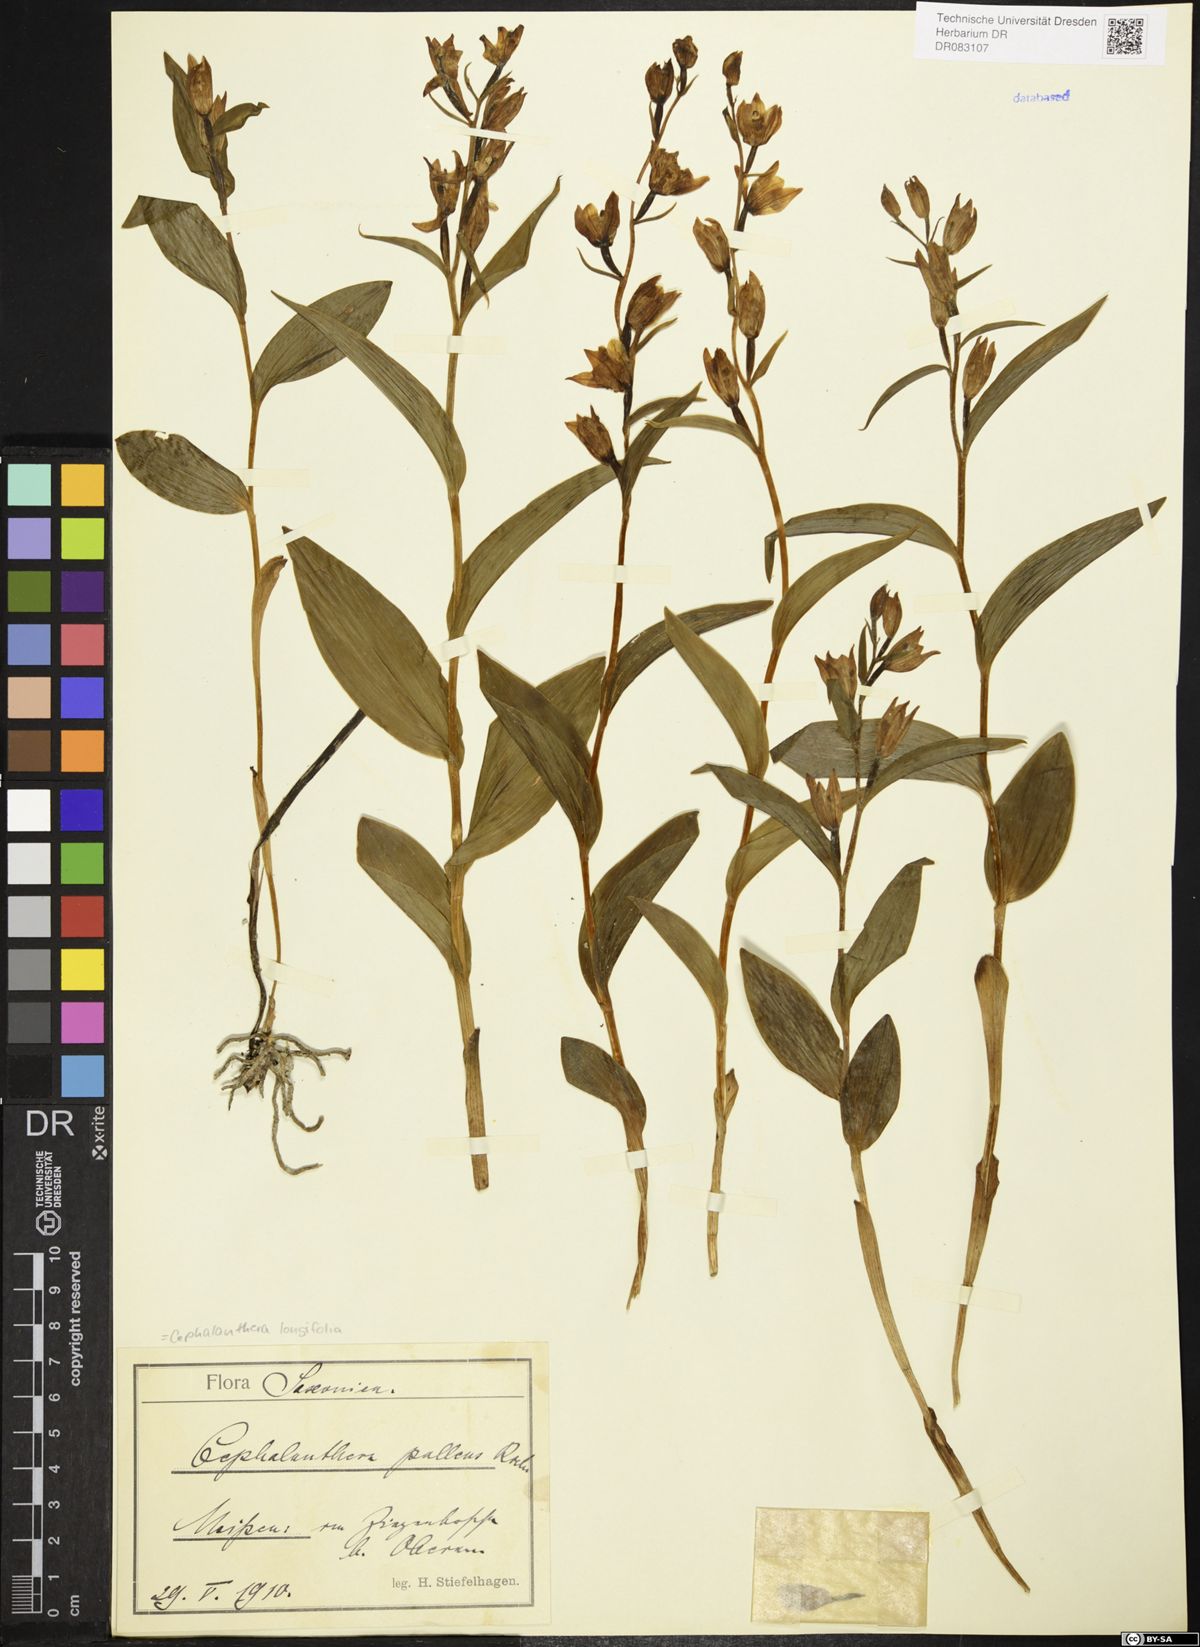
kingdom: Plantae
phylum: Tracheophyta
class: Liliopsida
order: Asparagales
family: Orchidaceae
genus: Cephalanthera
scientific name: Cephalanthera longifolia
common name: Narrow-leaved helleborine
